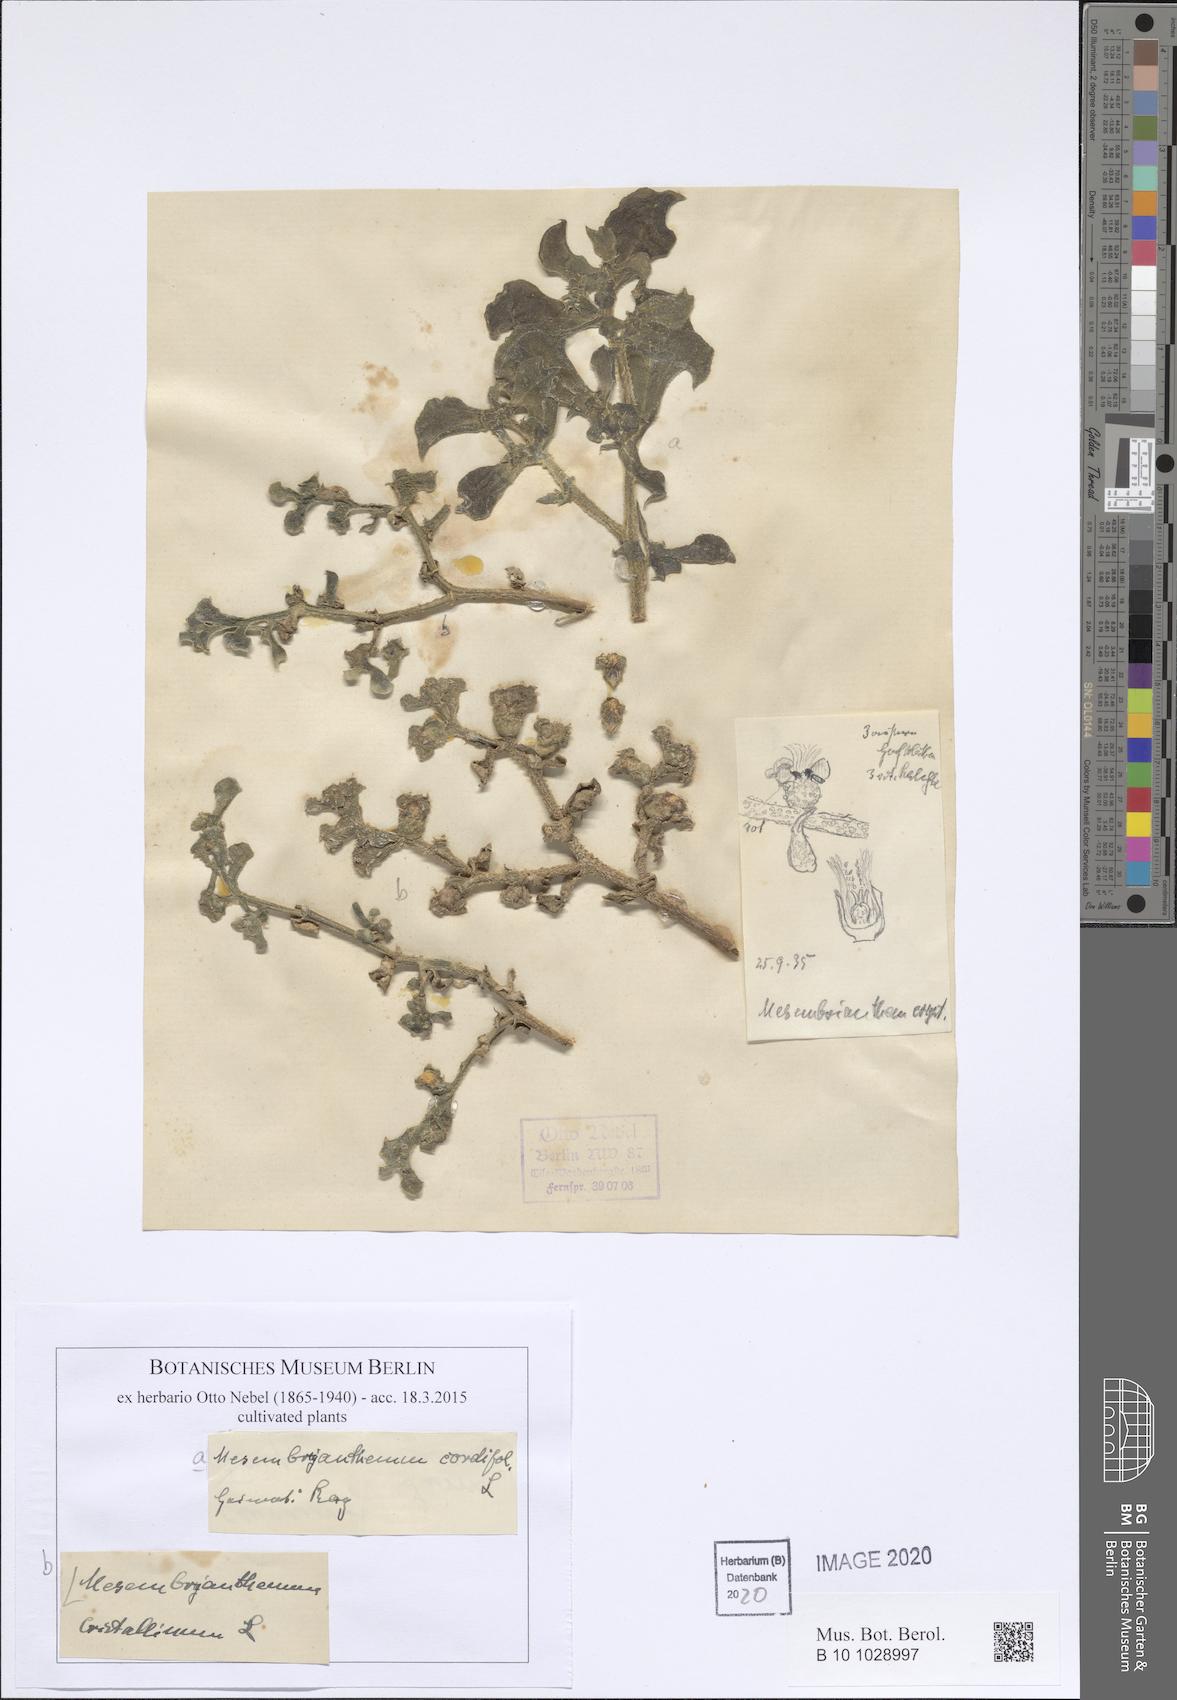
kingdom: Plantae
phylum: Tracheophyta
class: Magnoliopsida
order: Caryophyllales
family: Aizoaceae
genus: Mesembryanthemum
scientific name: Mesembryanthemum crystallinum
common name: Common iceplant
